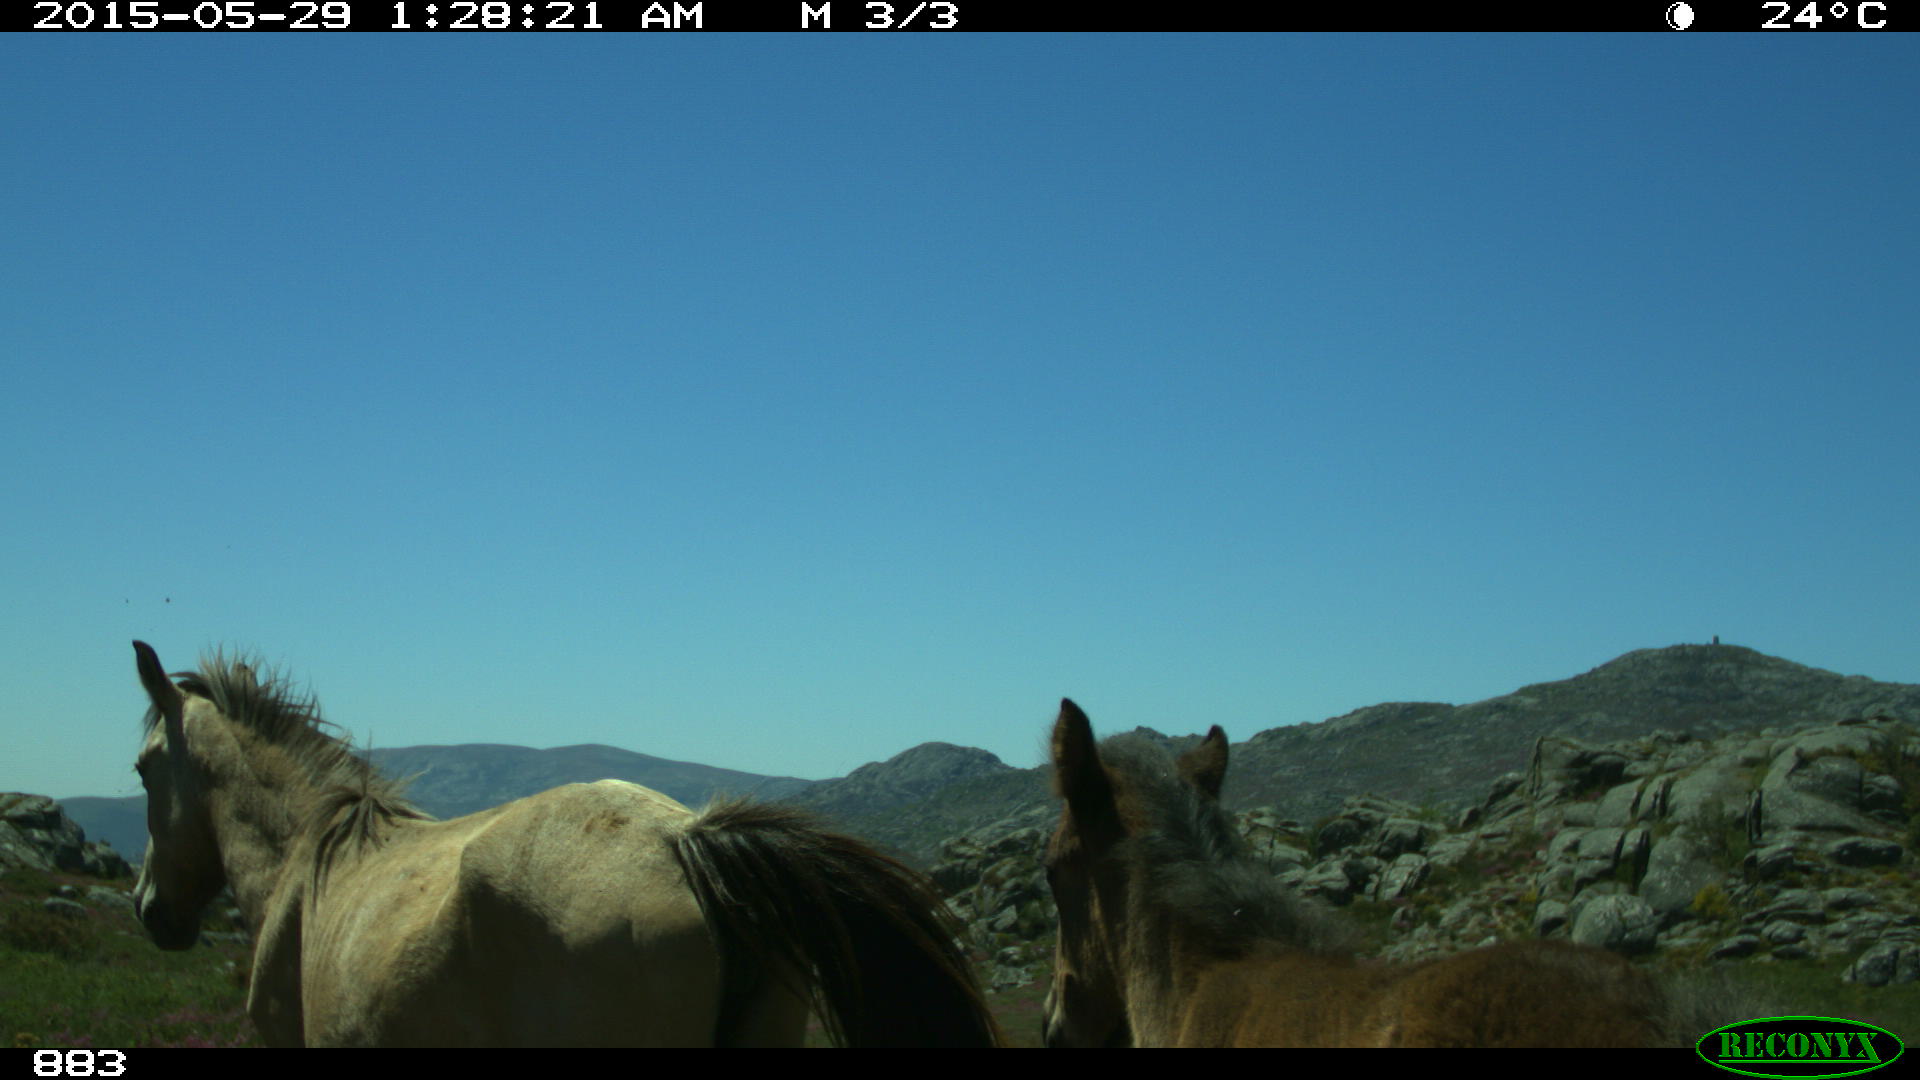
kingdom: Animalia
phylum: Chordata
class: Mammalia
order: Perissodactyla
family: Equidae
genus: Equus
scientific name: Equus caballus
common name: Horse
